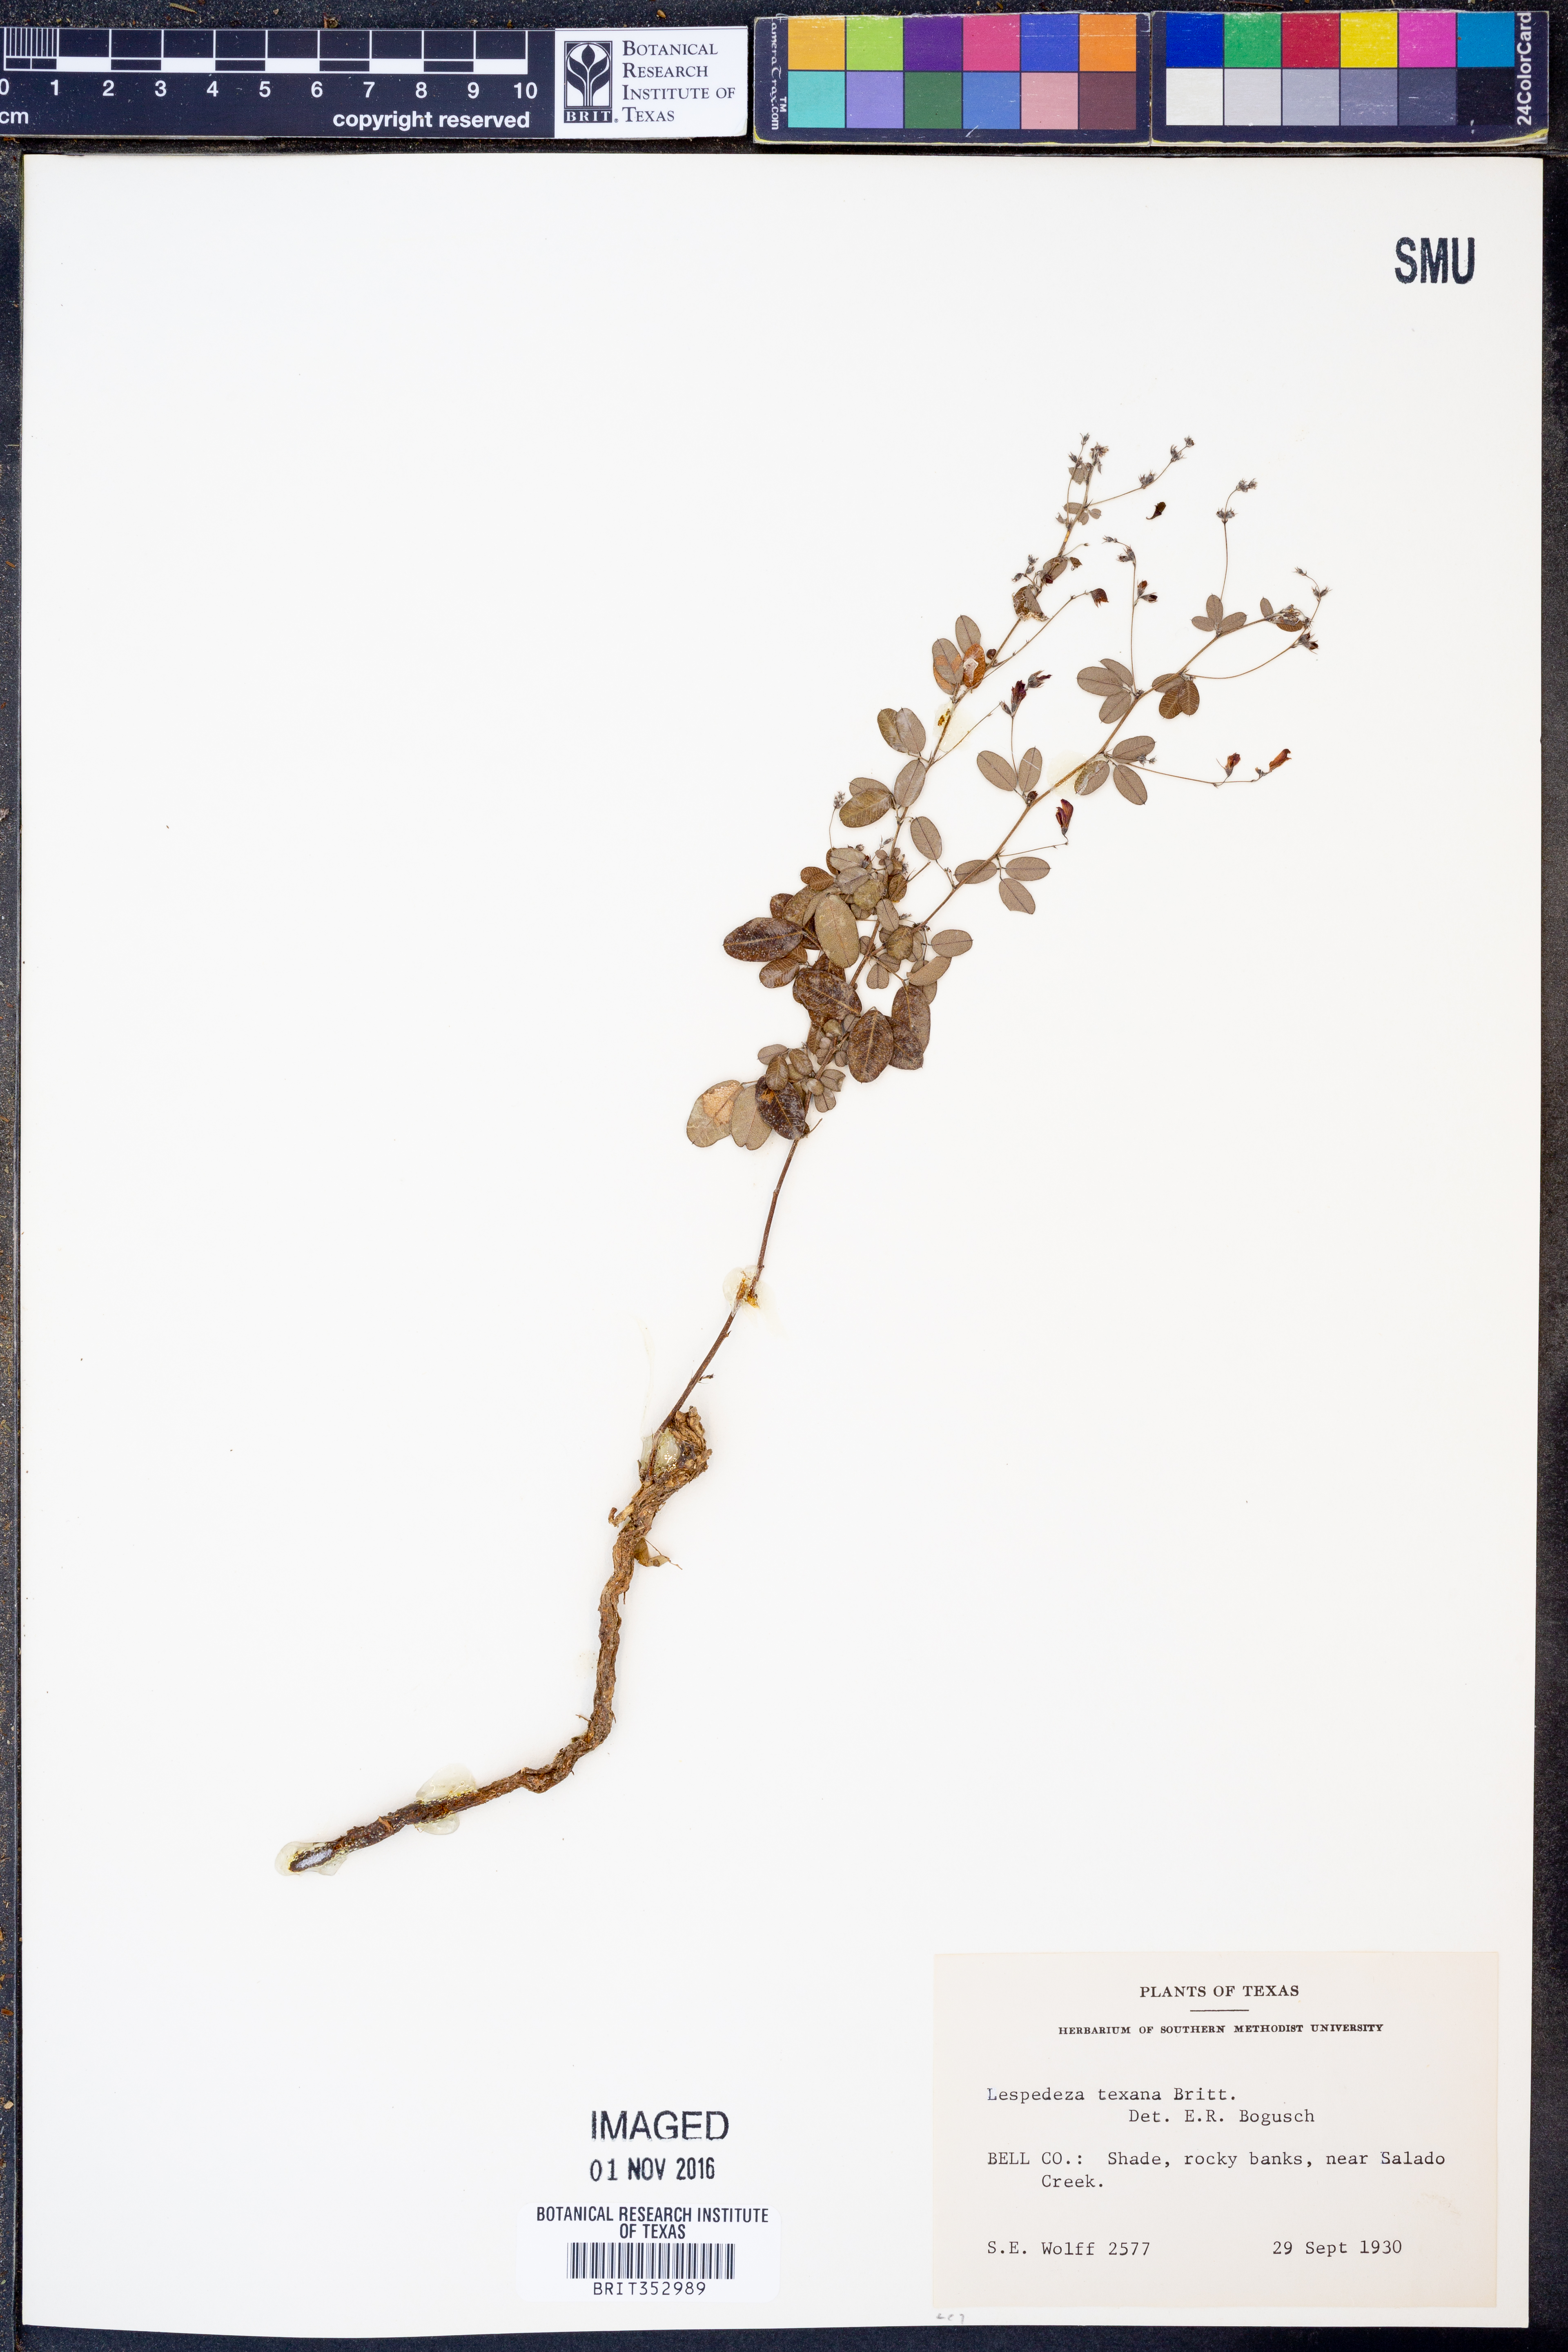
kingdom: Plantae
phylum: Tracheophyta
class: Magnoliopsida
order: Fabales
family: Fabaceae
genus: Lespedeza
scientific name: Lespedeza texana
